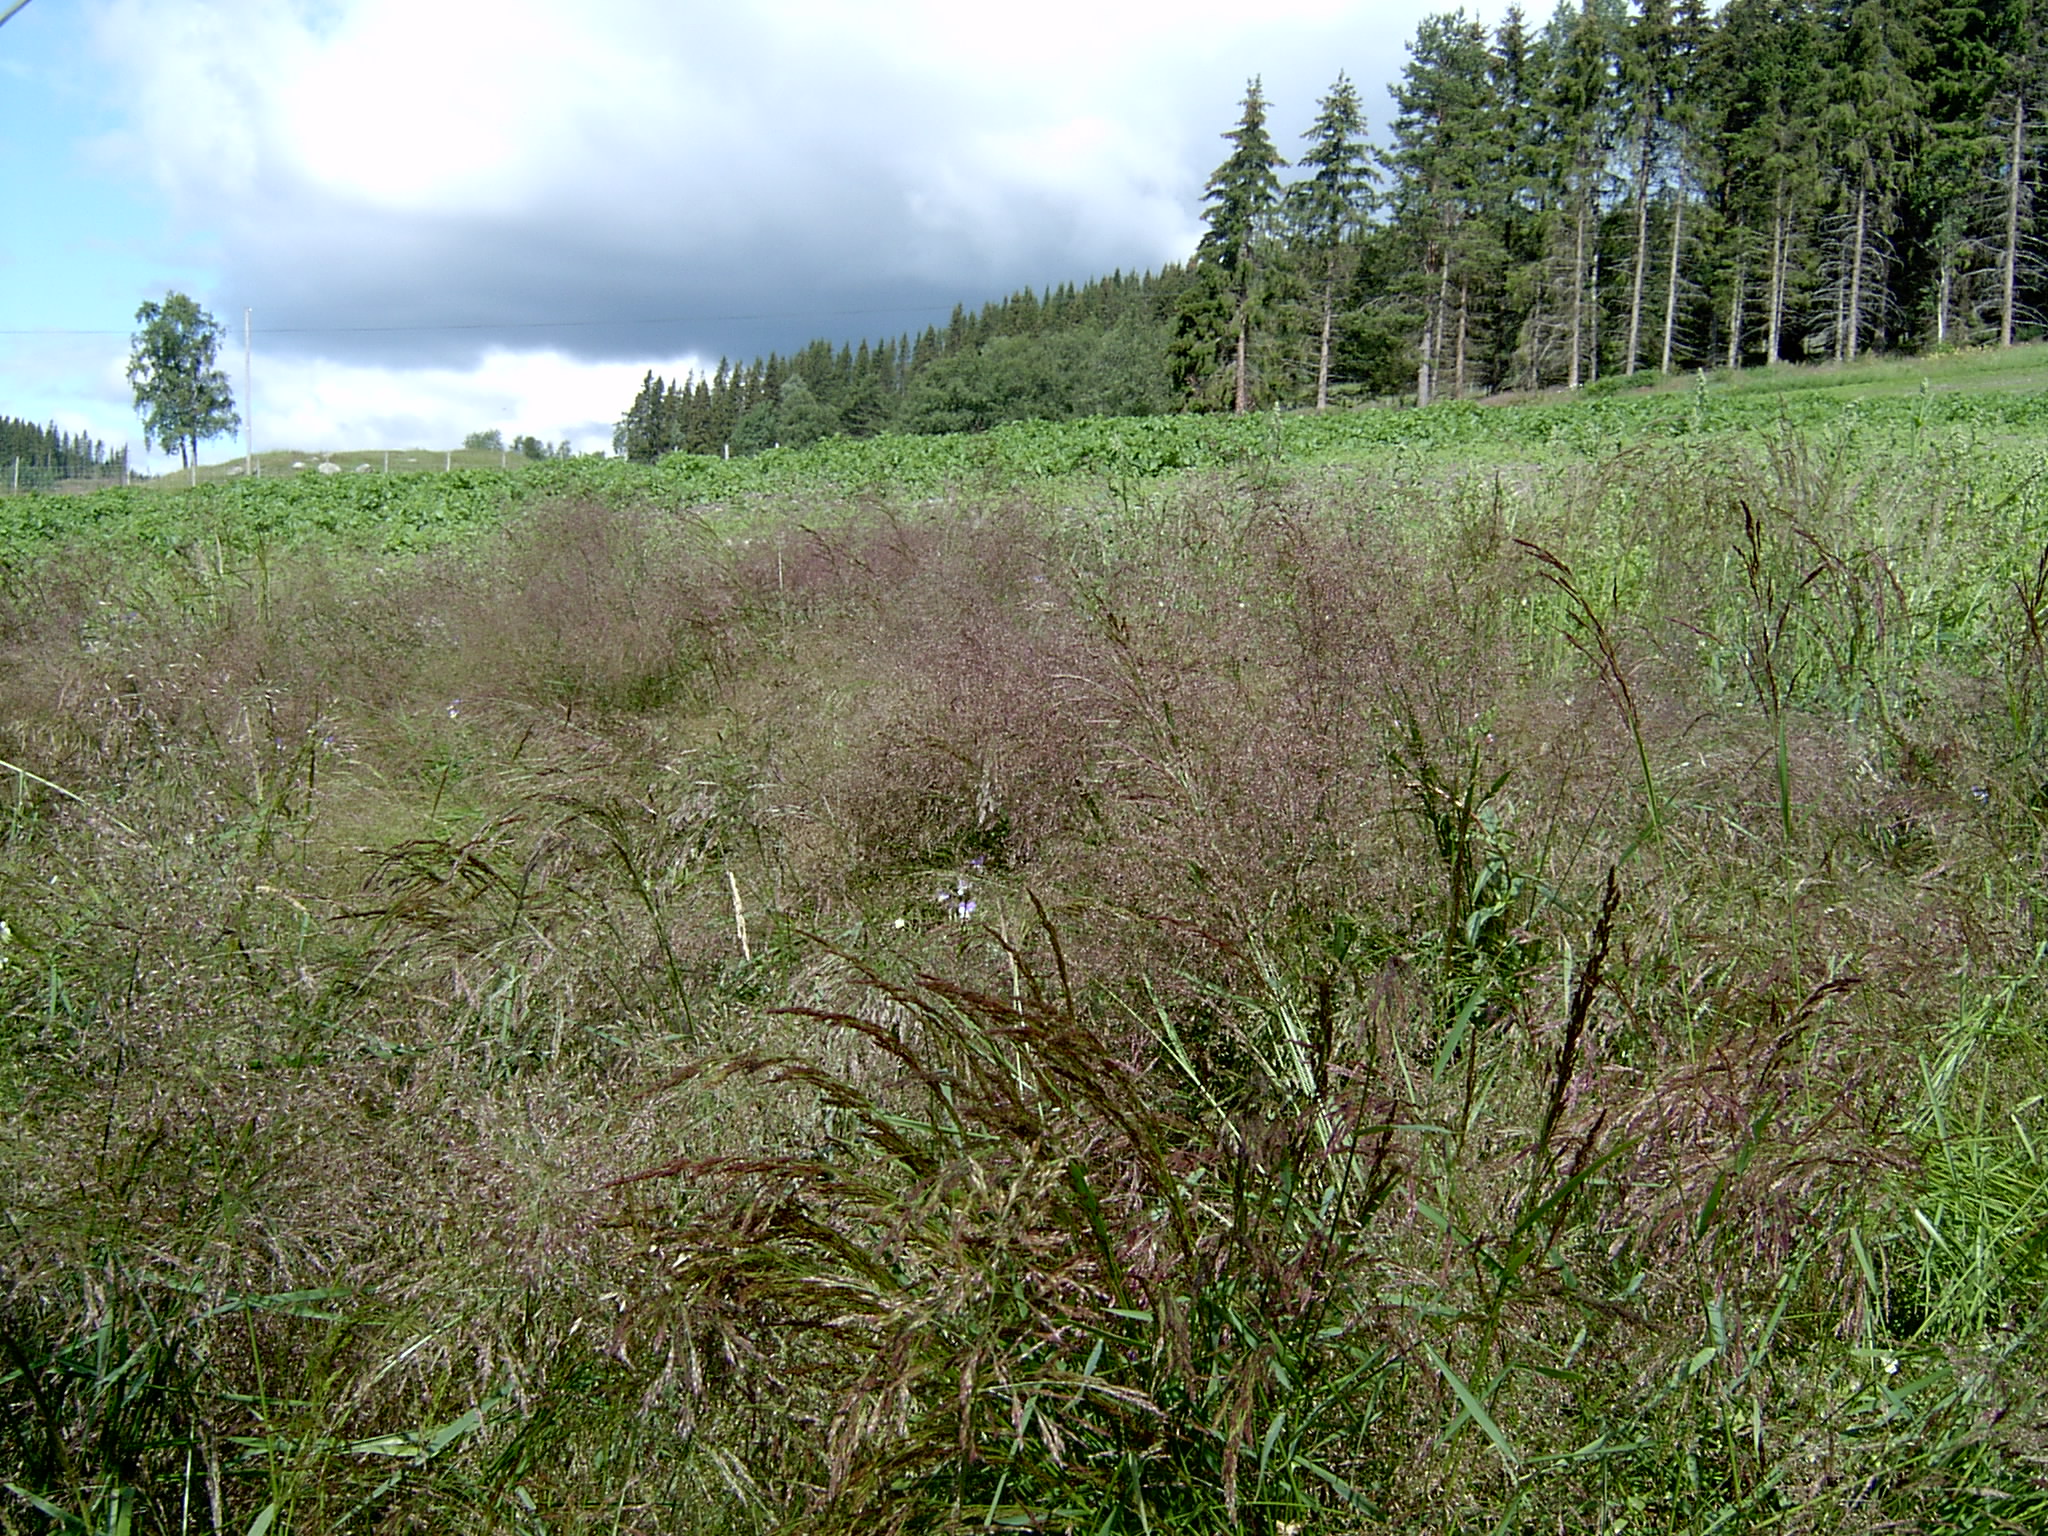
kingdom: Plantae
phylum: Tracheophyta
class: Liliopsida
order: Poales
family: Poaceae
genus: Agrostis
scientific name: Agrostis capillaris
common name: Colonial bentgrass
